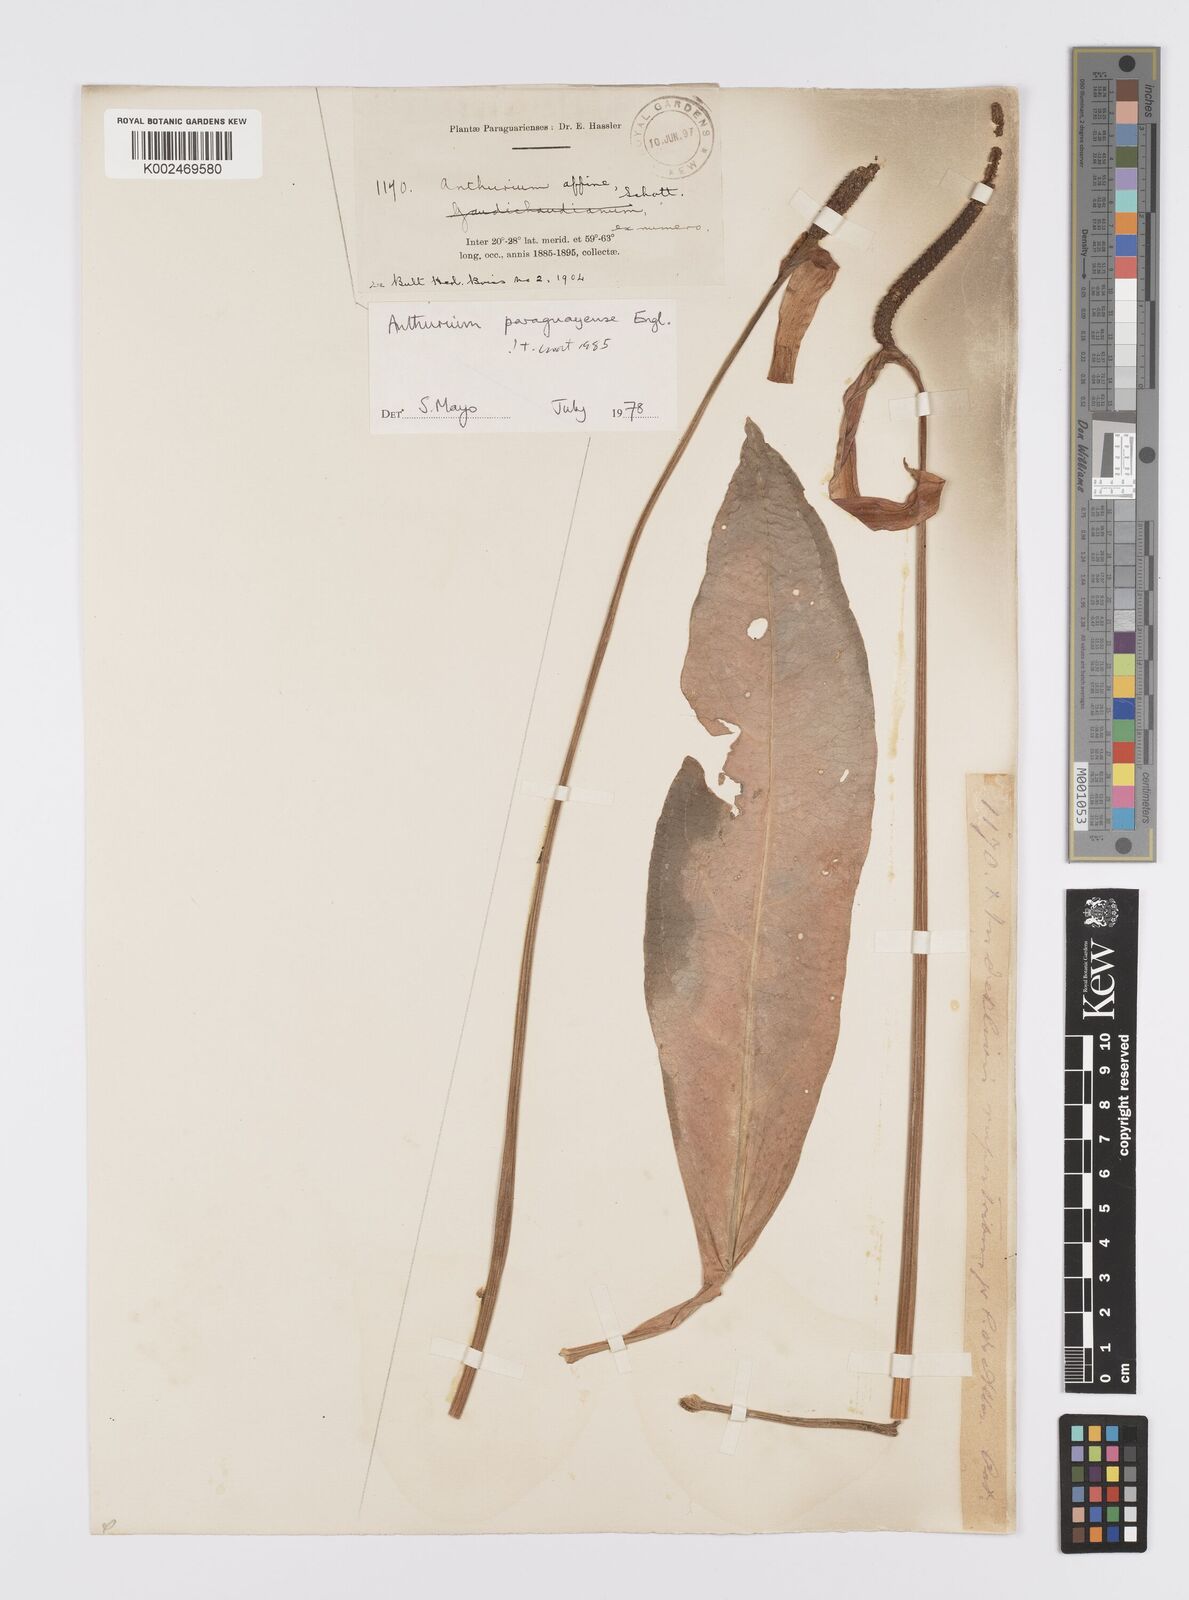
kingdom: Plantae
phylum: Tracheophyta
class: Liliopsida
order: Alismatales
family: Araceae
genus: Anthurium
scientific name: Anthurium paraguayense
